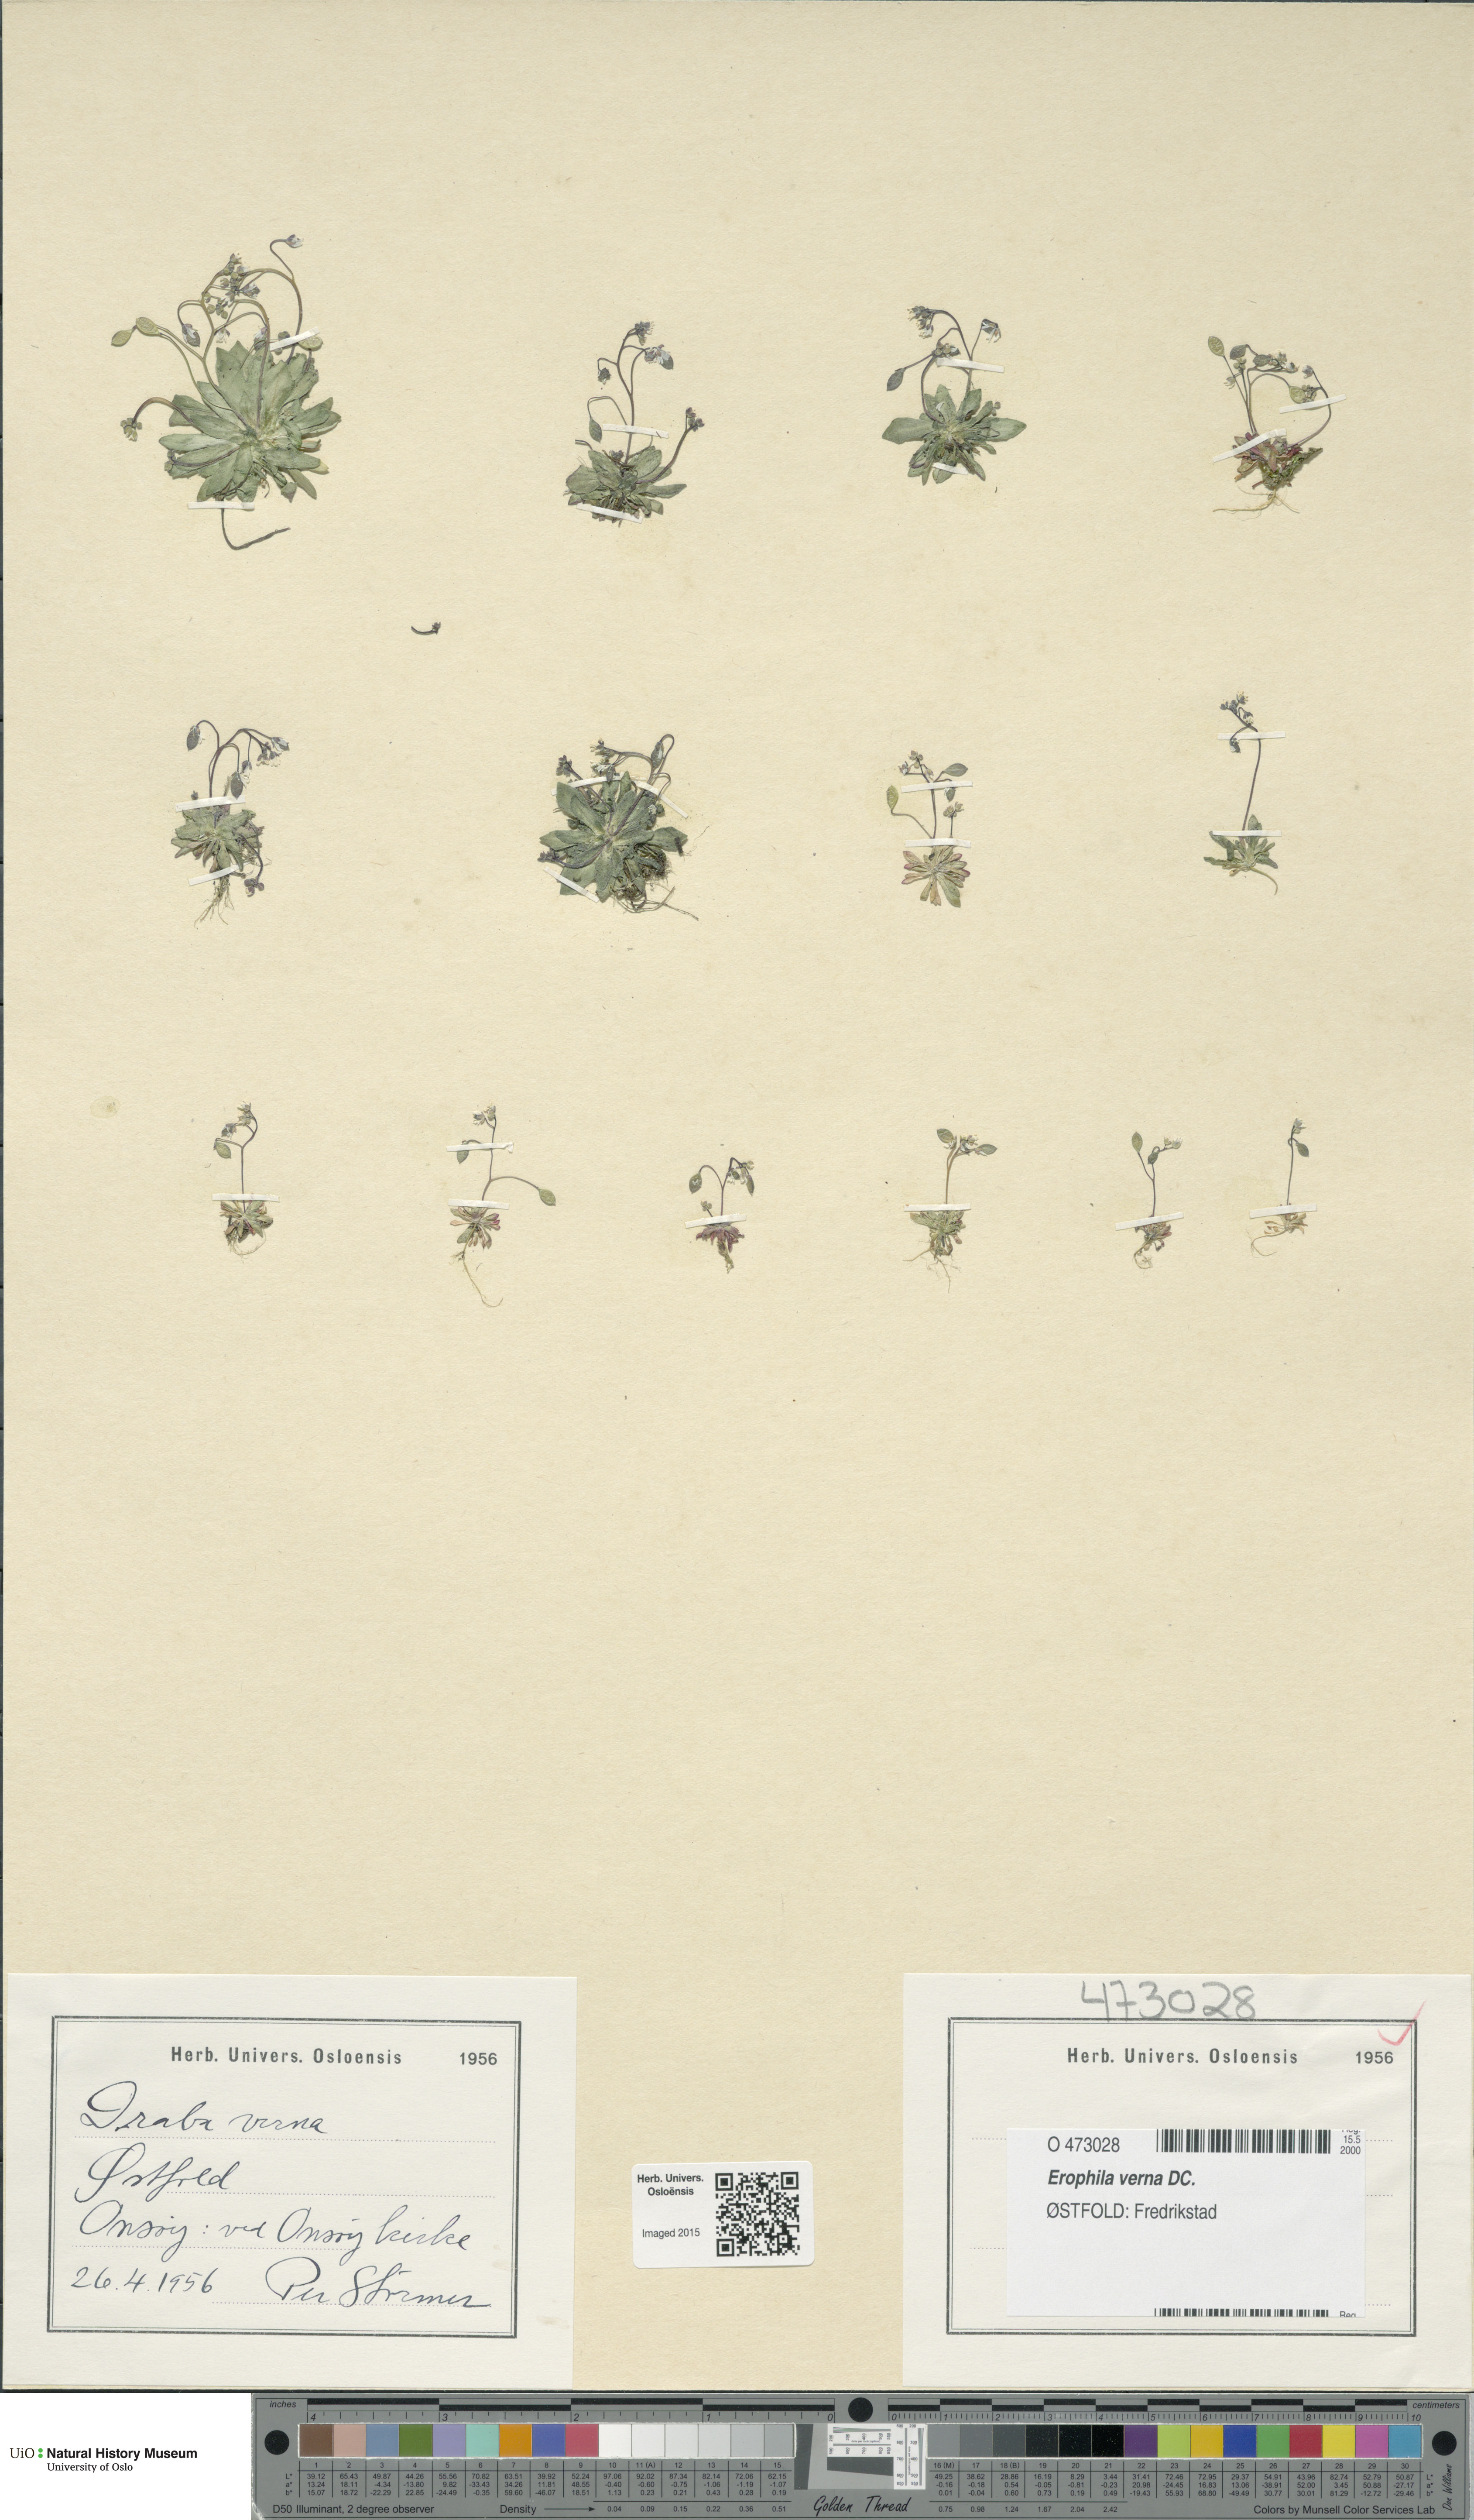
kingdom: Plantae
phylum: Tracheophyta
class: Magnoliopsida
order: Brassicales
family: Brassicaceae
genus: Draba
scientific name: Draba verna
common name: Spring draba
